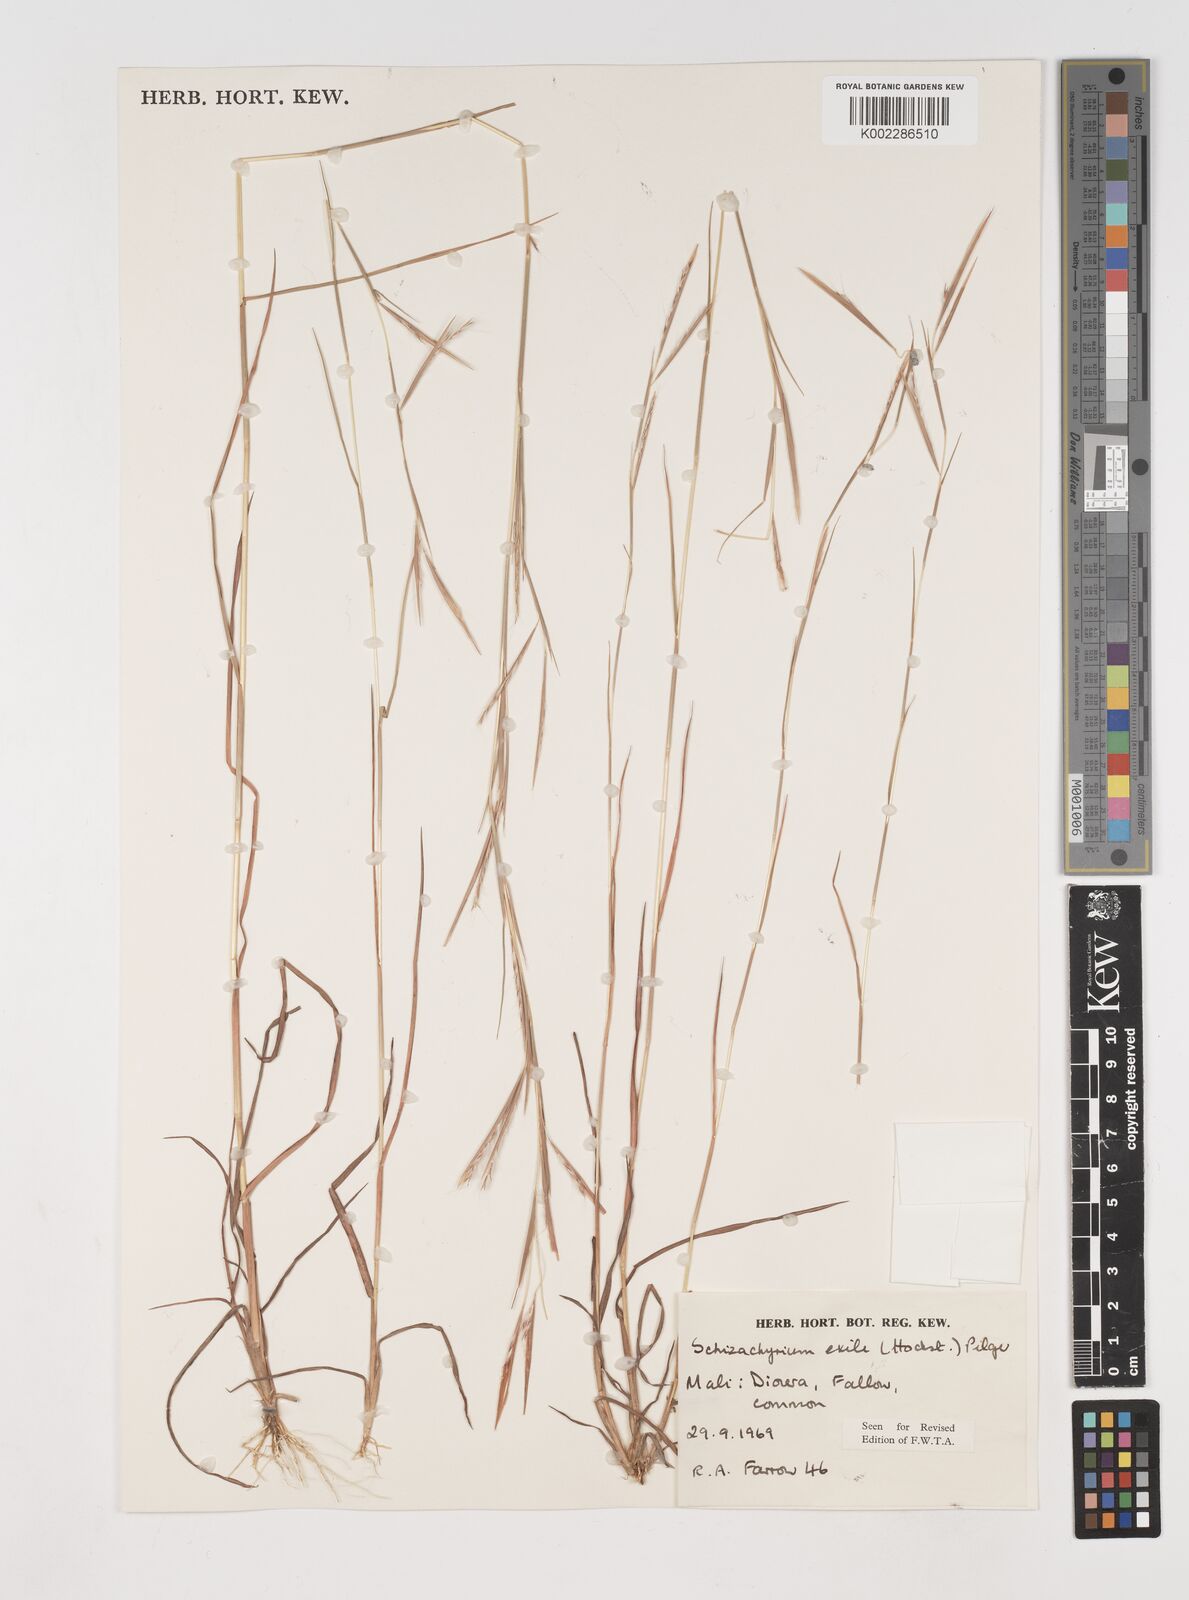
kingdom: Plantae
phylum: Tracheophyta
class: Liliopsida
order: Poales
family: Poaceae
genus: Schizachyrium
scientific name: Schizachyrium exile
